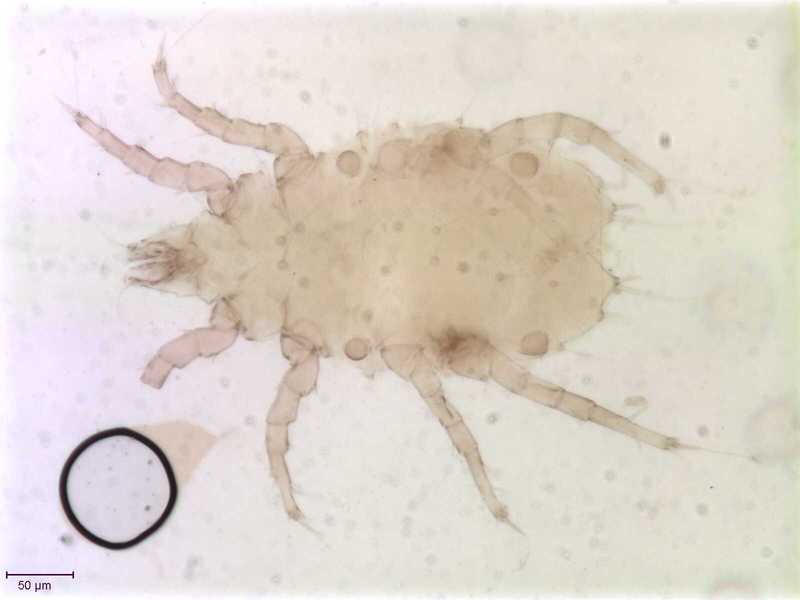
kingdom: Animalia
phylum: Arthropoda
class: Arachnida
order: Sarcoptiformes
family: Histiostomatidae
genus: Prowichmannia
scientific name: Prowichmannia
